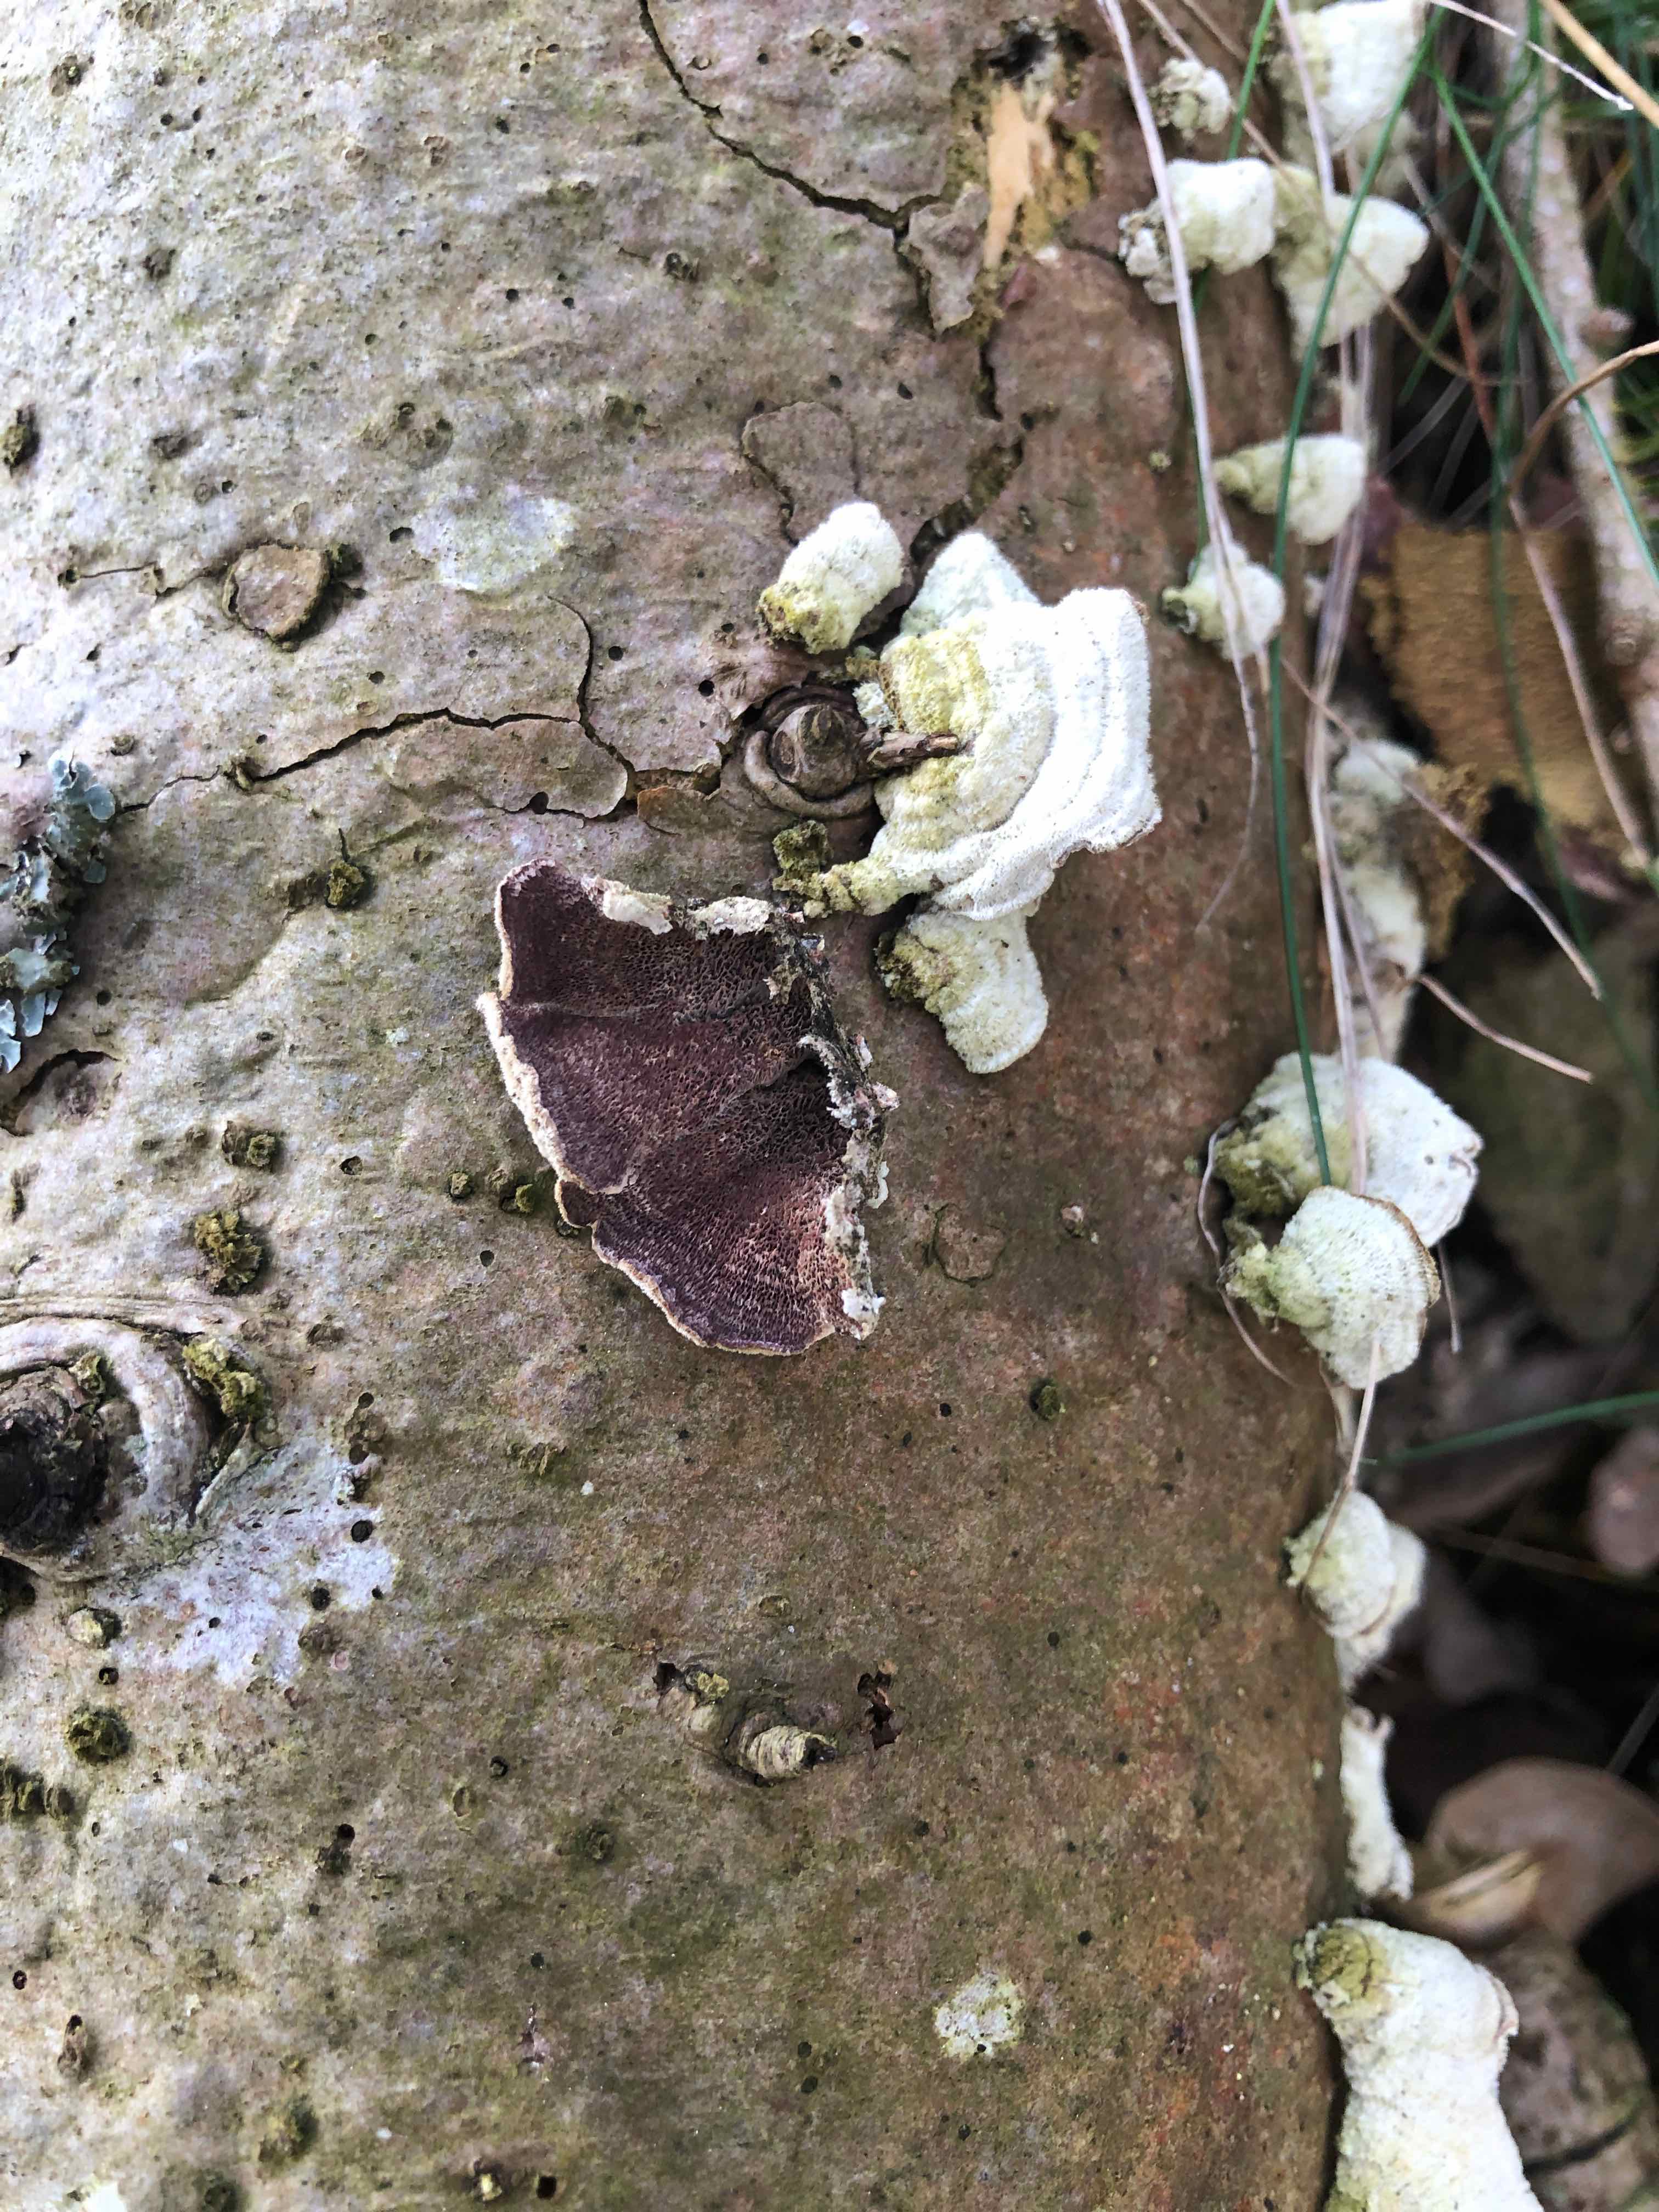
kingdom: Fungi
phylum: Basidiomycota
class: Agaricomycetes
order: Hymenochaetales
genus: Trichaptum
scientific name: Trichaptum abietinum
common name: almindelig violporesvamp
